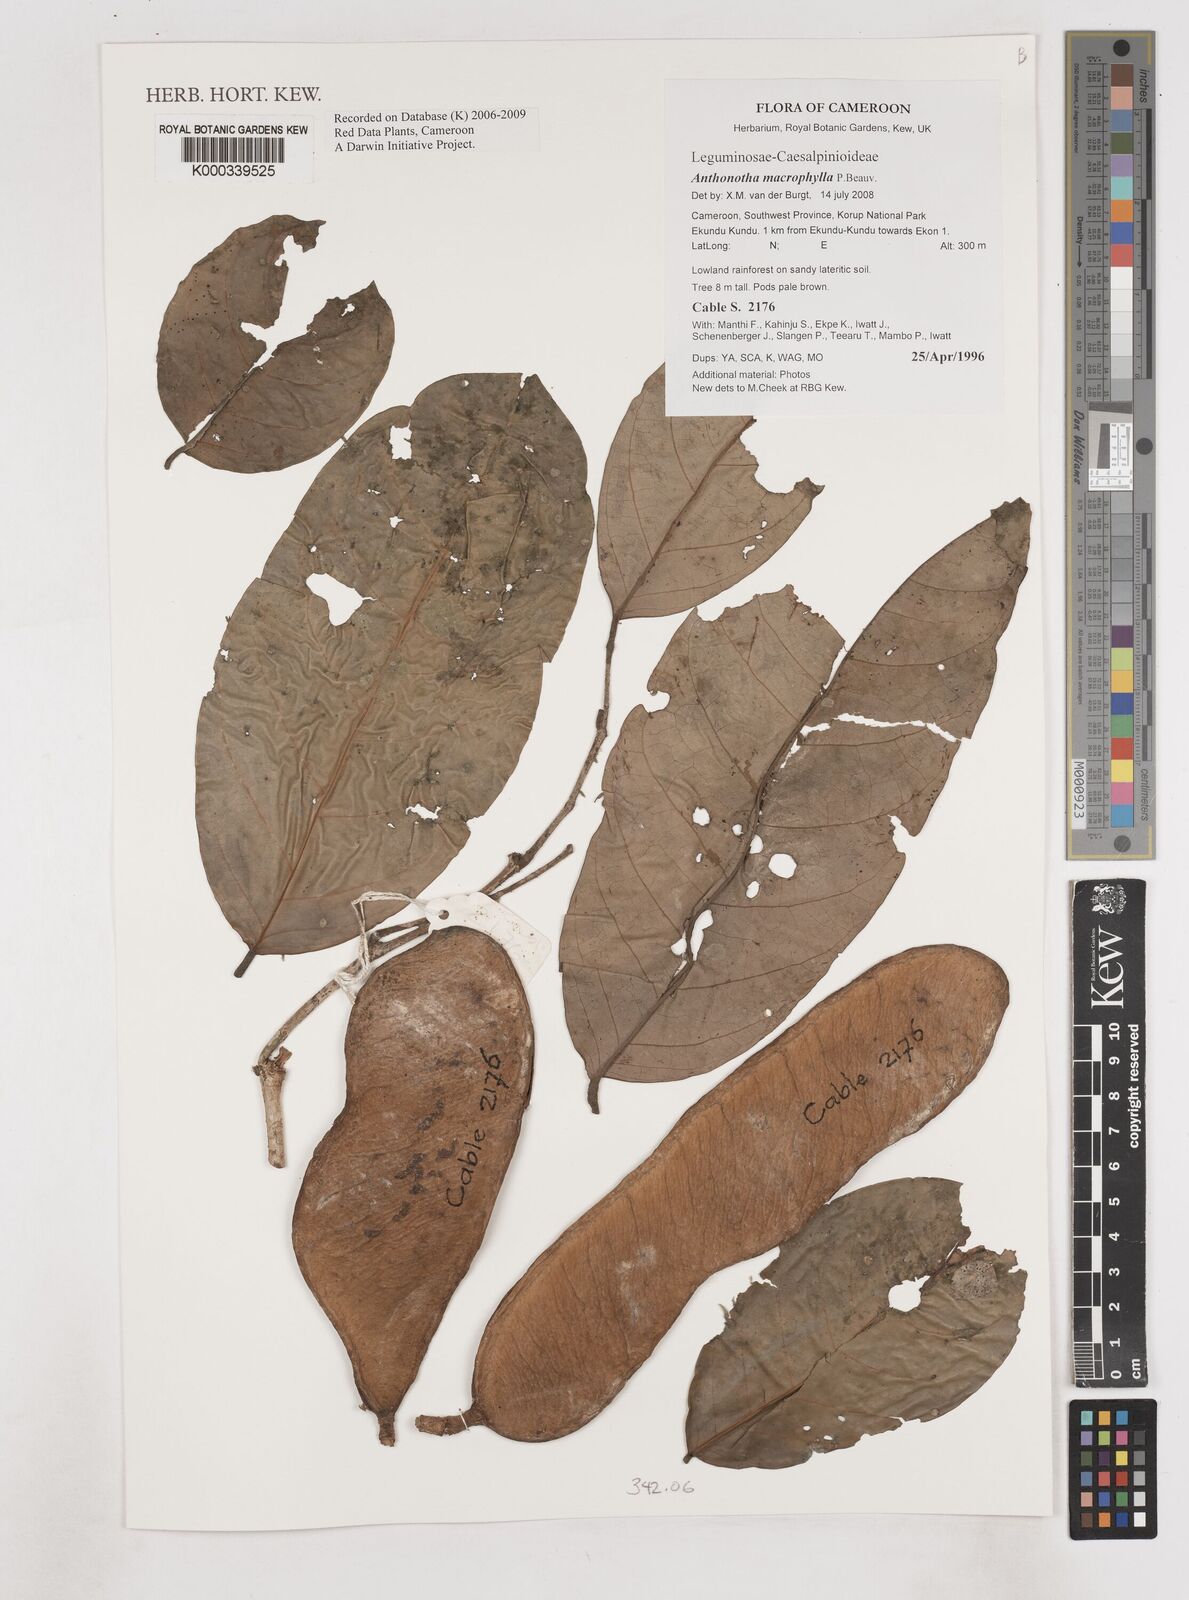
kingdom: Plantae
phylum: Tracheophyta
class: Magnoliopsida
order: Fabales
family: Fabaceae
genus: Anthonotha
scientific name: Anthonotha macrophylla
